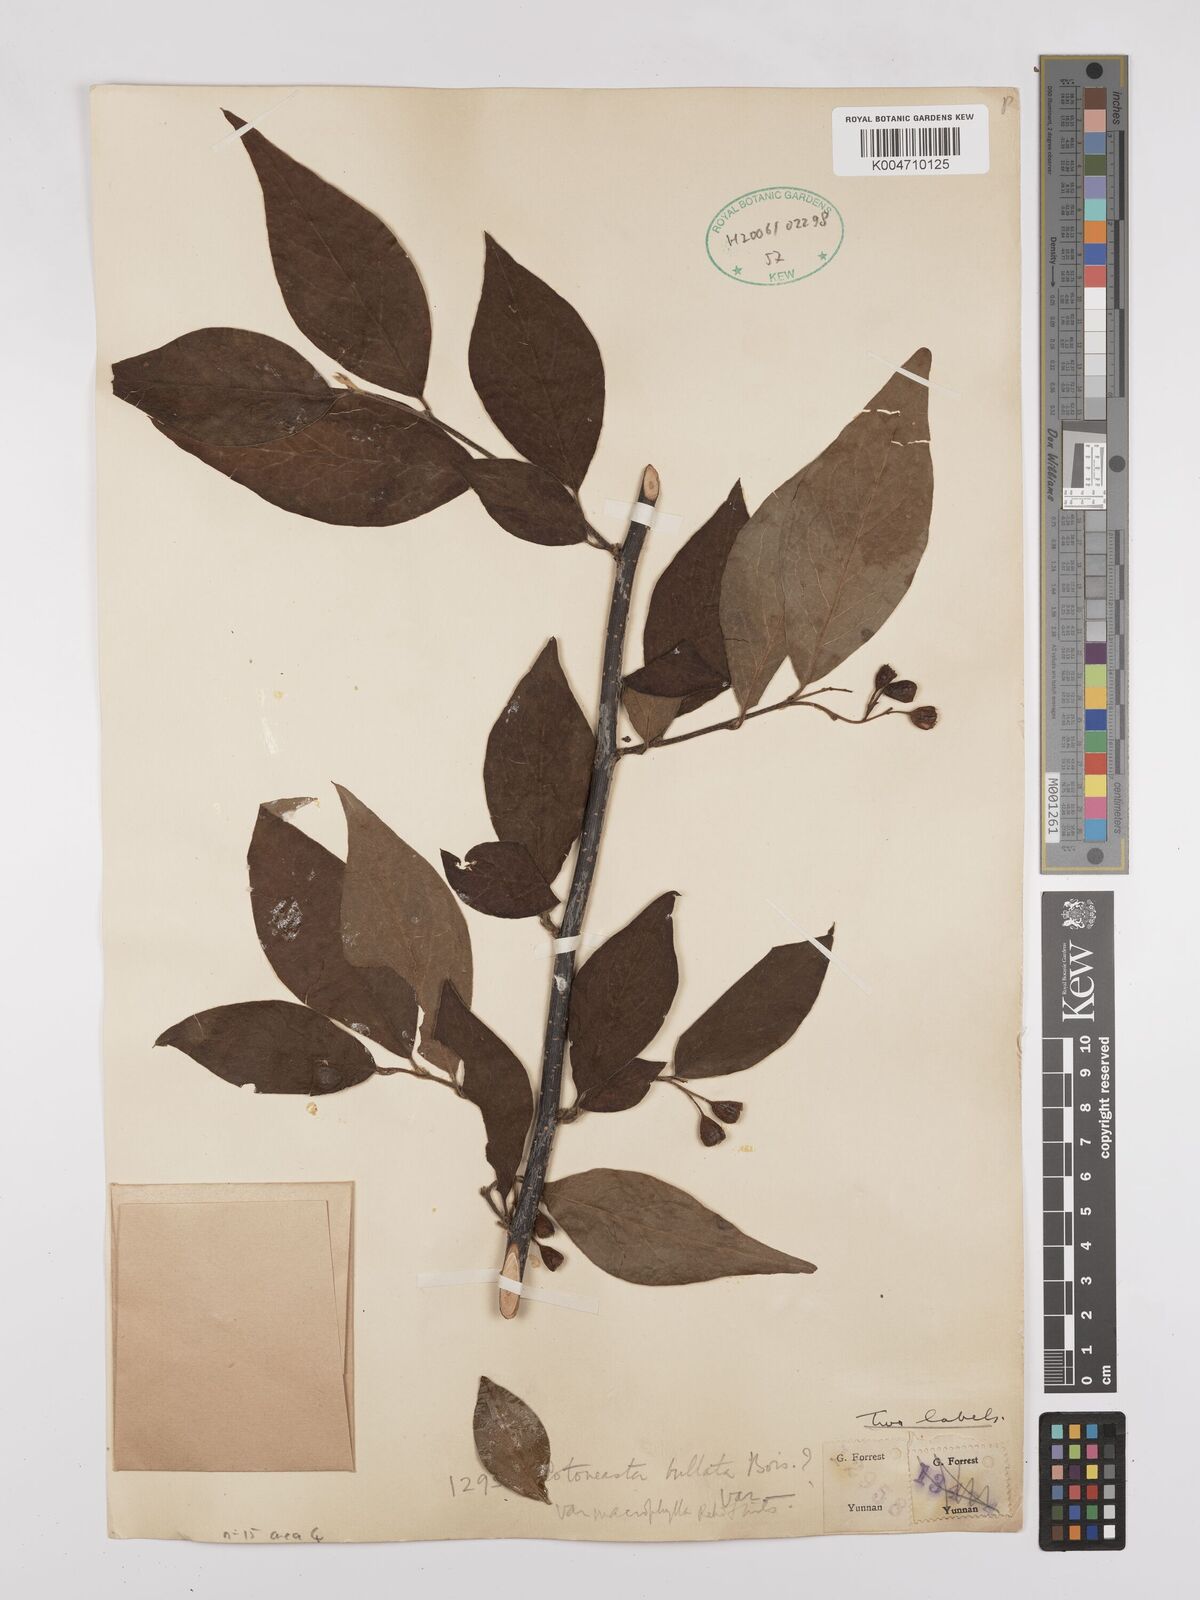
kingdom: Plantae
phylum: Tracheophyta
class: Magnoliopsida
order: Rosales
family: Rosaceae
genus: Cotoneaster
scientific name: Cotoneaster bullatus
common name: Hollyberry cotoneaster
